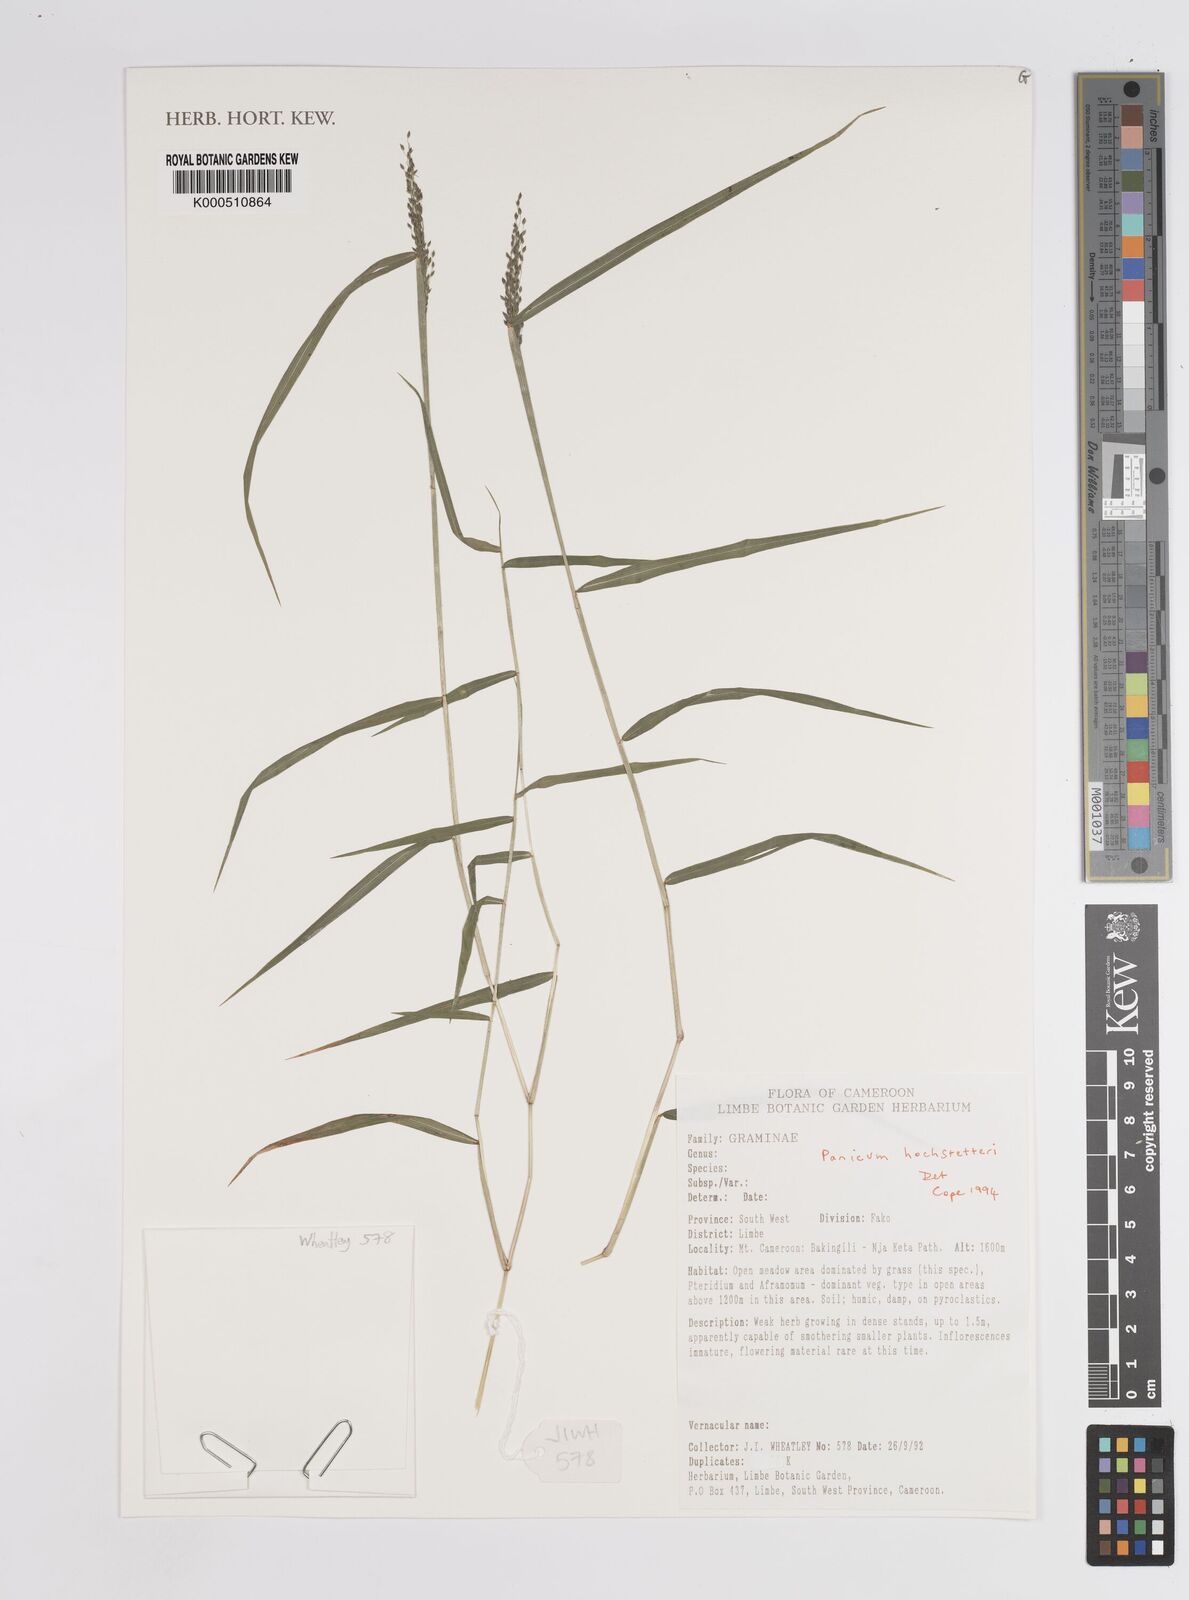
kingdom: Plantae
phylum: Tracheophyta
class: Liliopsida
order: Poales
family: Poaceae
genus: Panicum
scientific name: Panicum hochstetteri
